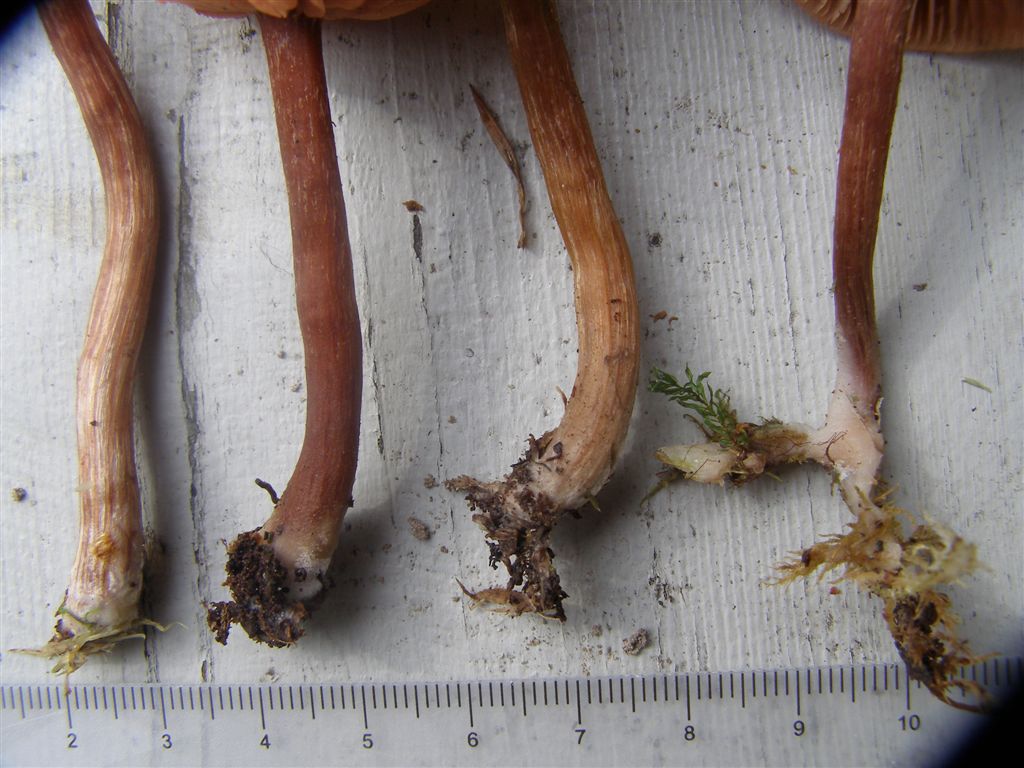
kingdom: Fungi
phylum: Basidiomycota
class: Agaricomycetes
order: Agaricales
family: Hydnangiaceae
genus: Laccaria
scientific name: Laccaria laccata
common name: rød ametysthat
